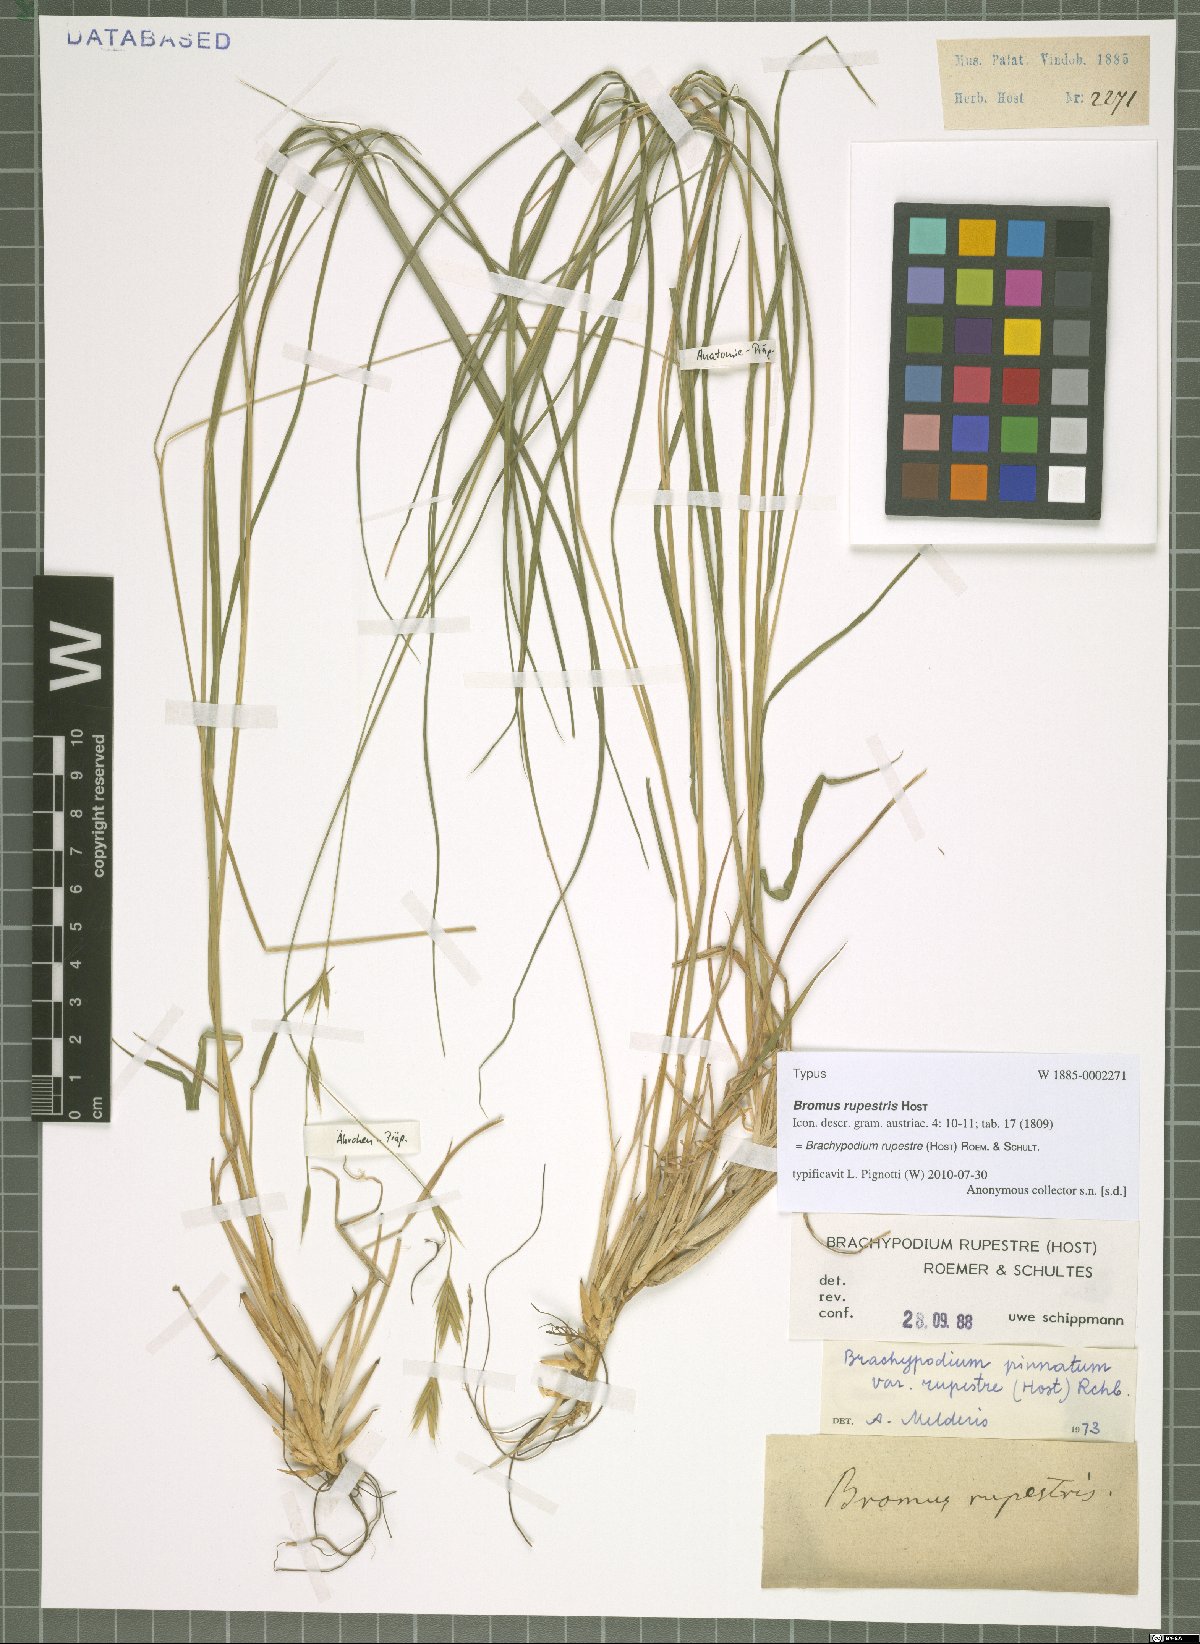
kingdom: Plantae
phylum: Tracheophyta
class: Liliopsida
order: Poales
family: Poaceae
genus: Brachypodium
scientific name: Brachypodium pinnatum
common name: Tor grass
